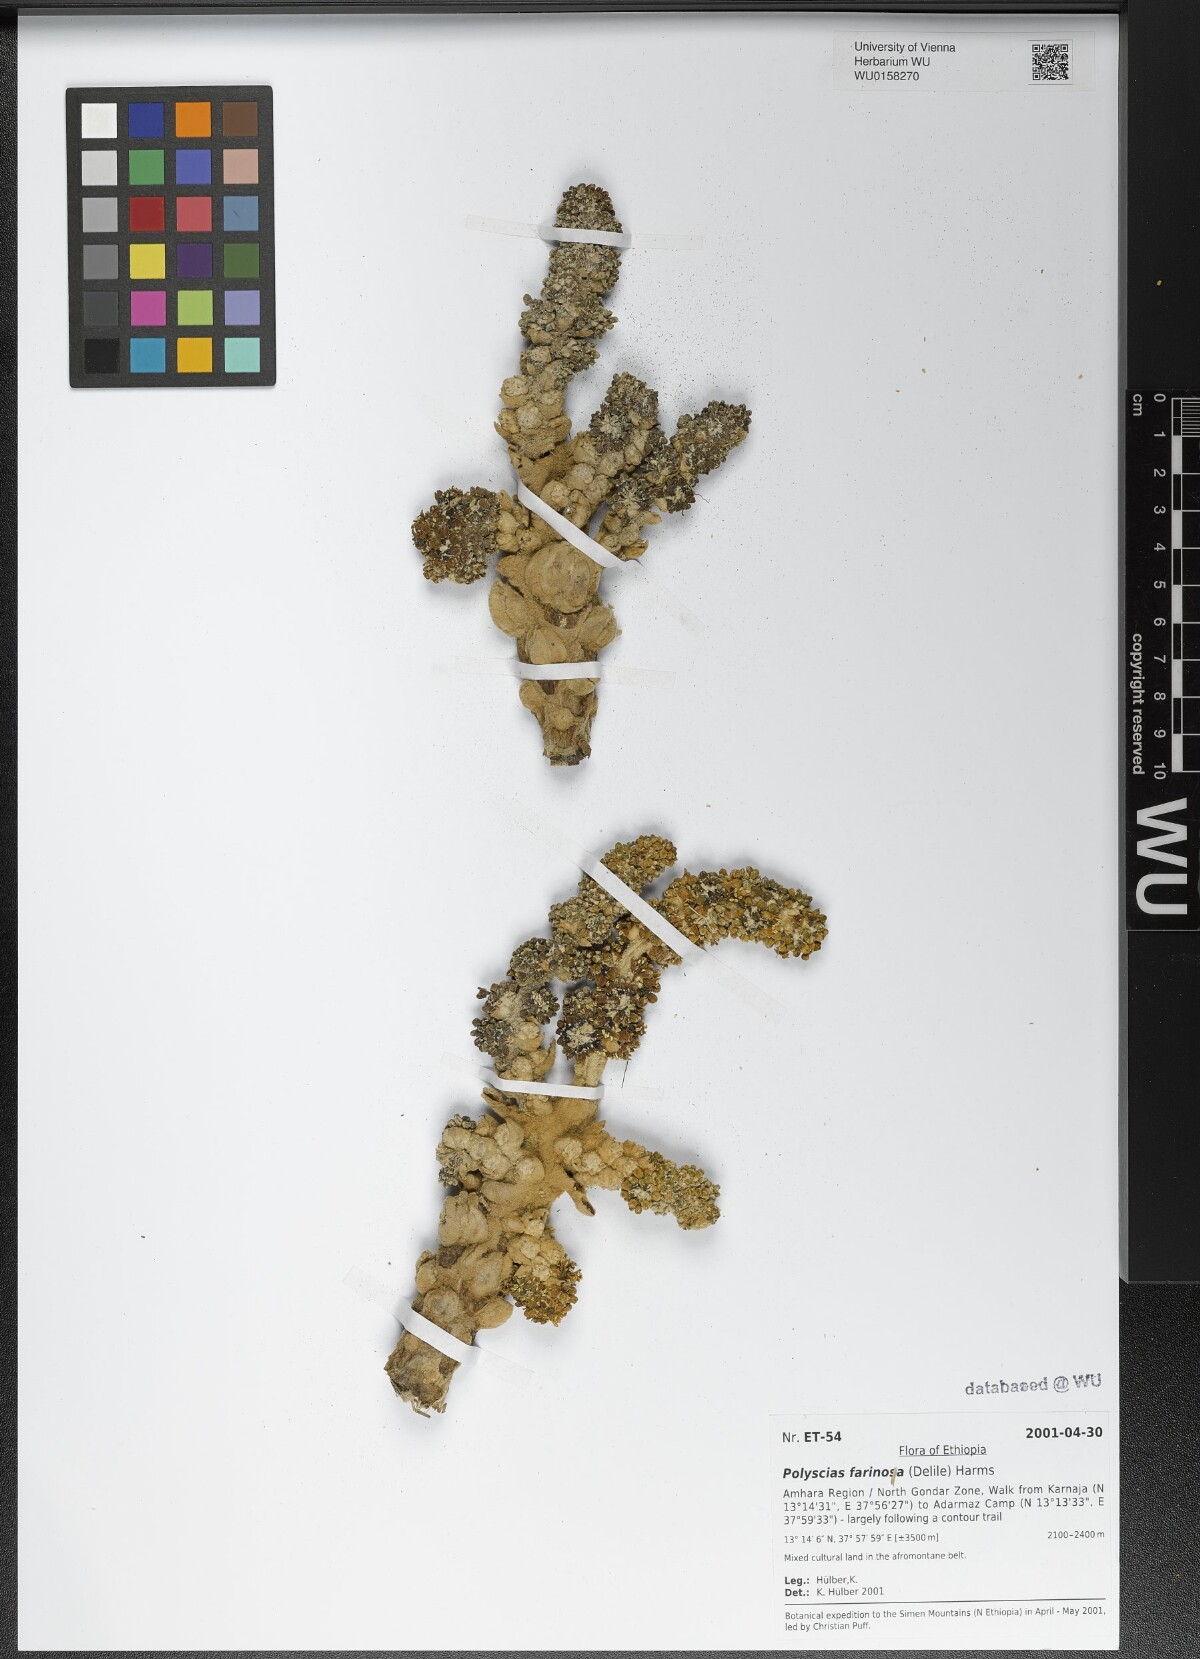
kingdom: Plantae
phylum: Tracheophyta
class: Magnoliopsida
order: Apiales
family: Araliaceae
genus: Polyscias
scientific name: Polyscias farinosa
